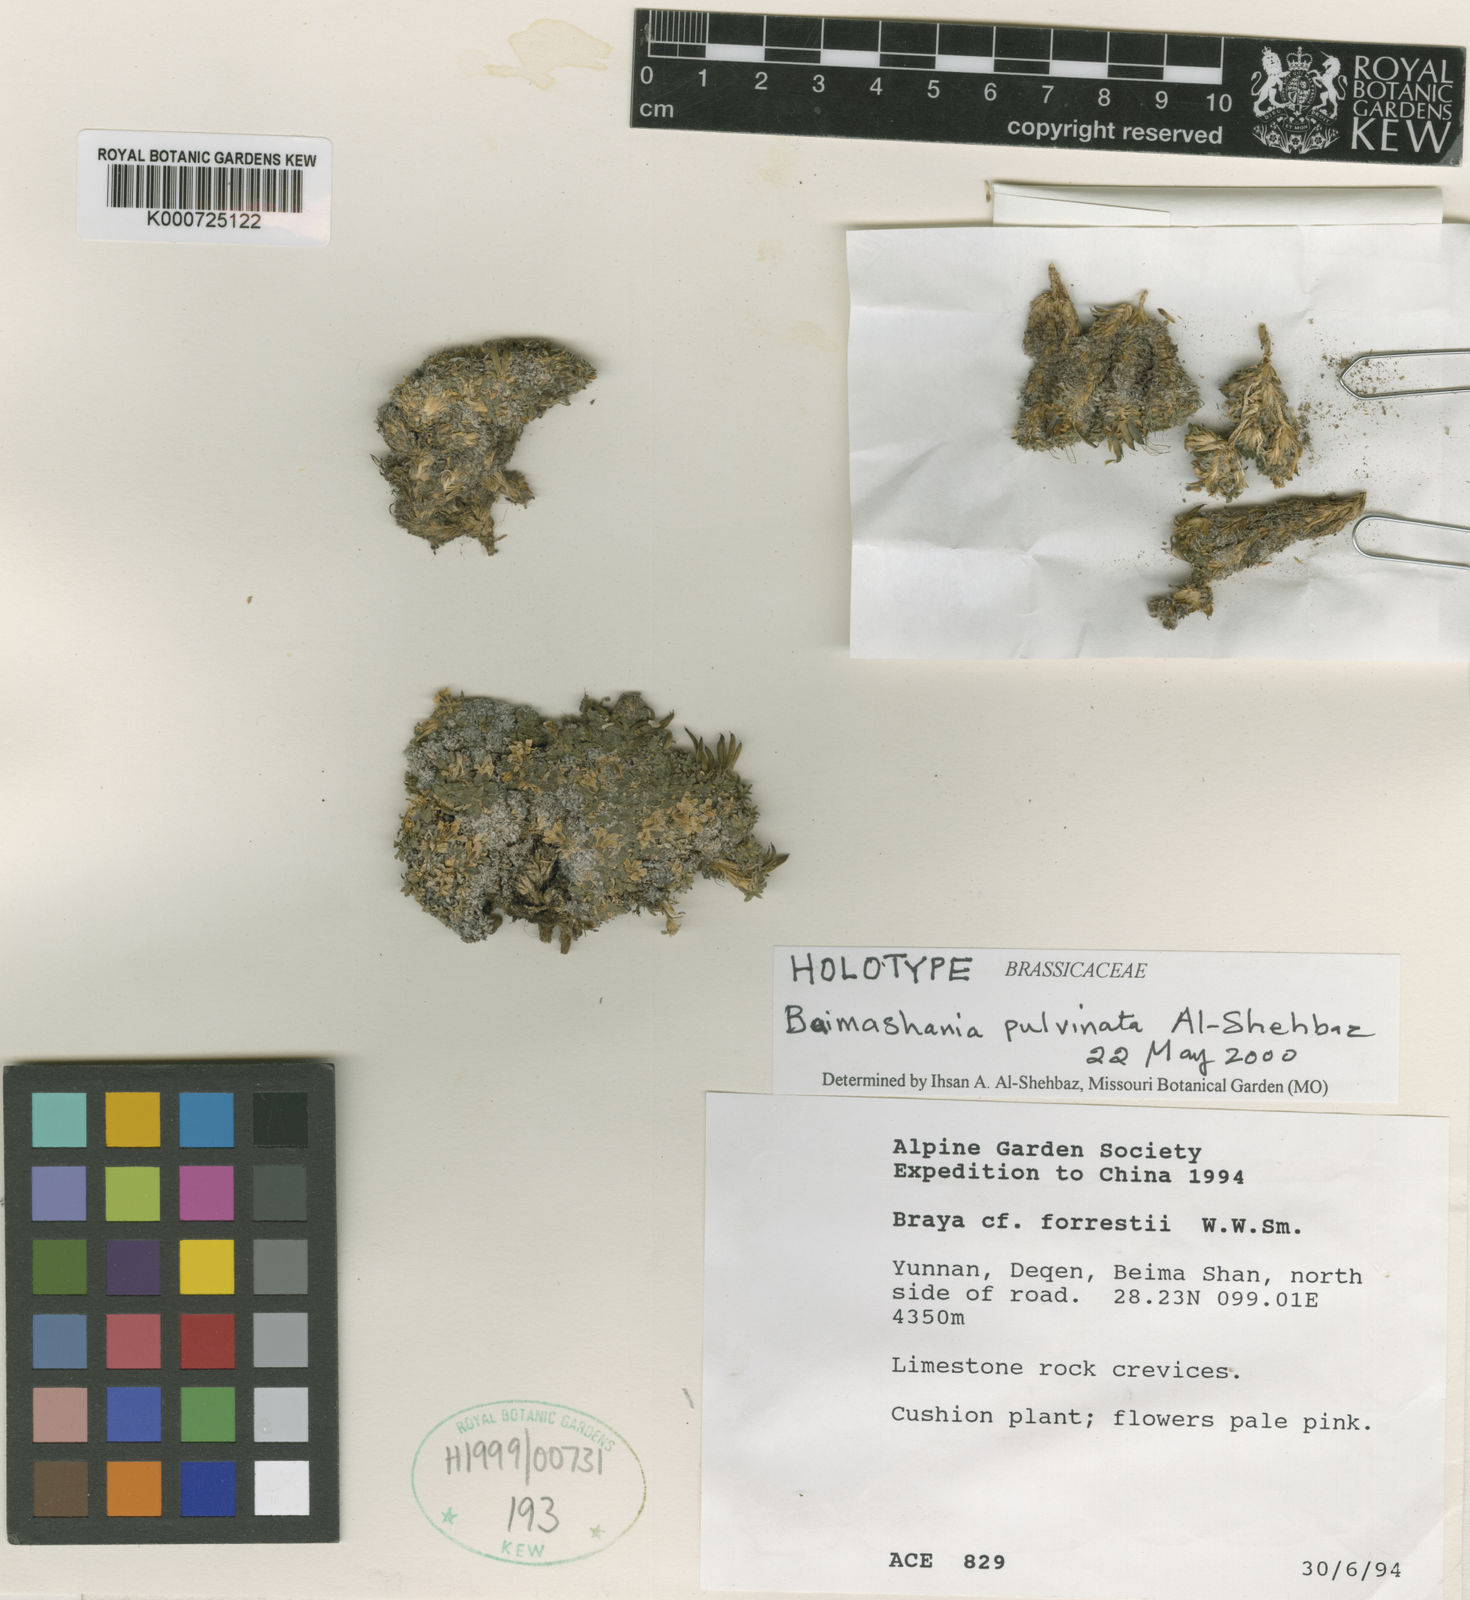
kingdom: Plantae
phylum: Tracheophyta
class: Magnoliopsida
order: Brassicales
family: Brassicaceae
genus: Baimashania
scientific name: Baimashania pulvinata
